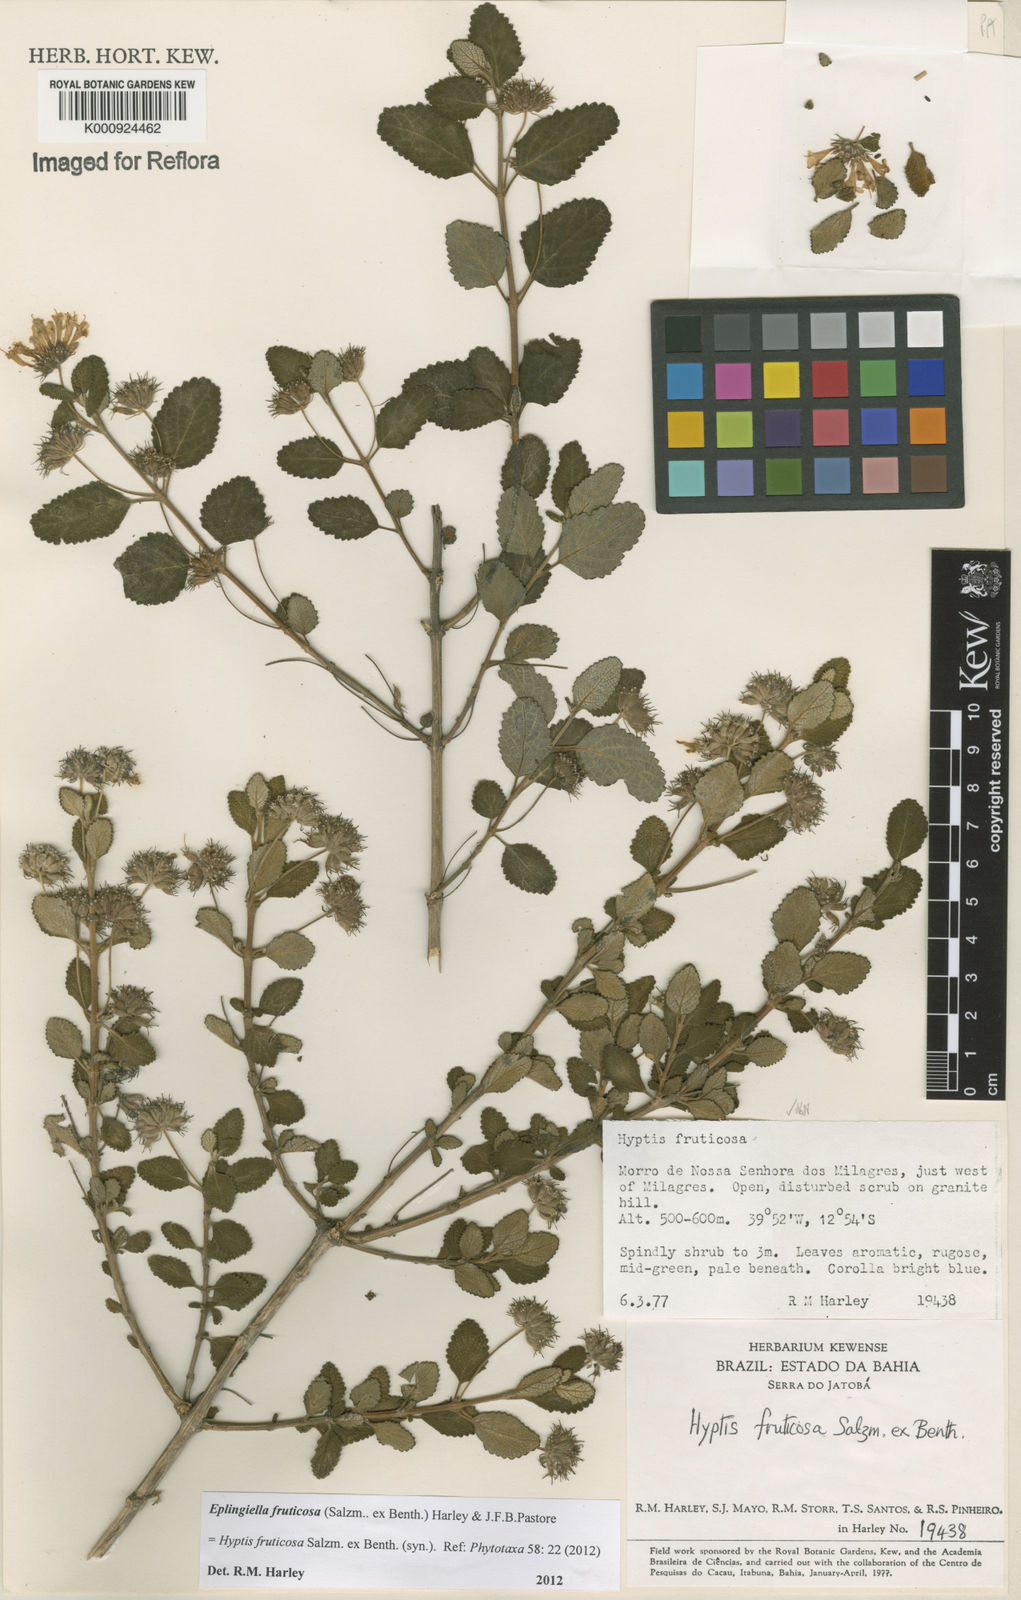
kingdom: Plantae
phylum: Tracheophyta
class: Magnoliopsida
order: Lamiales
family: Lamiaceae
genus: Eplingiella
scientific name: Eplingiella fruticosa
